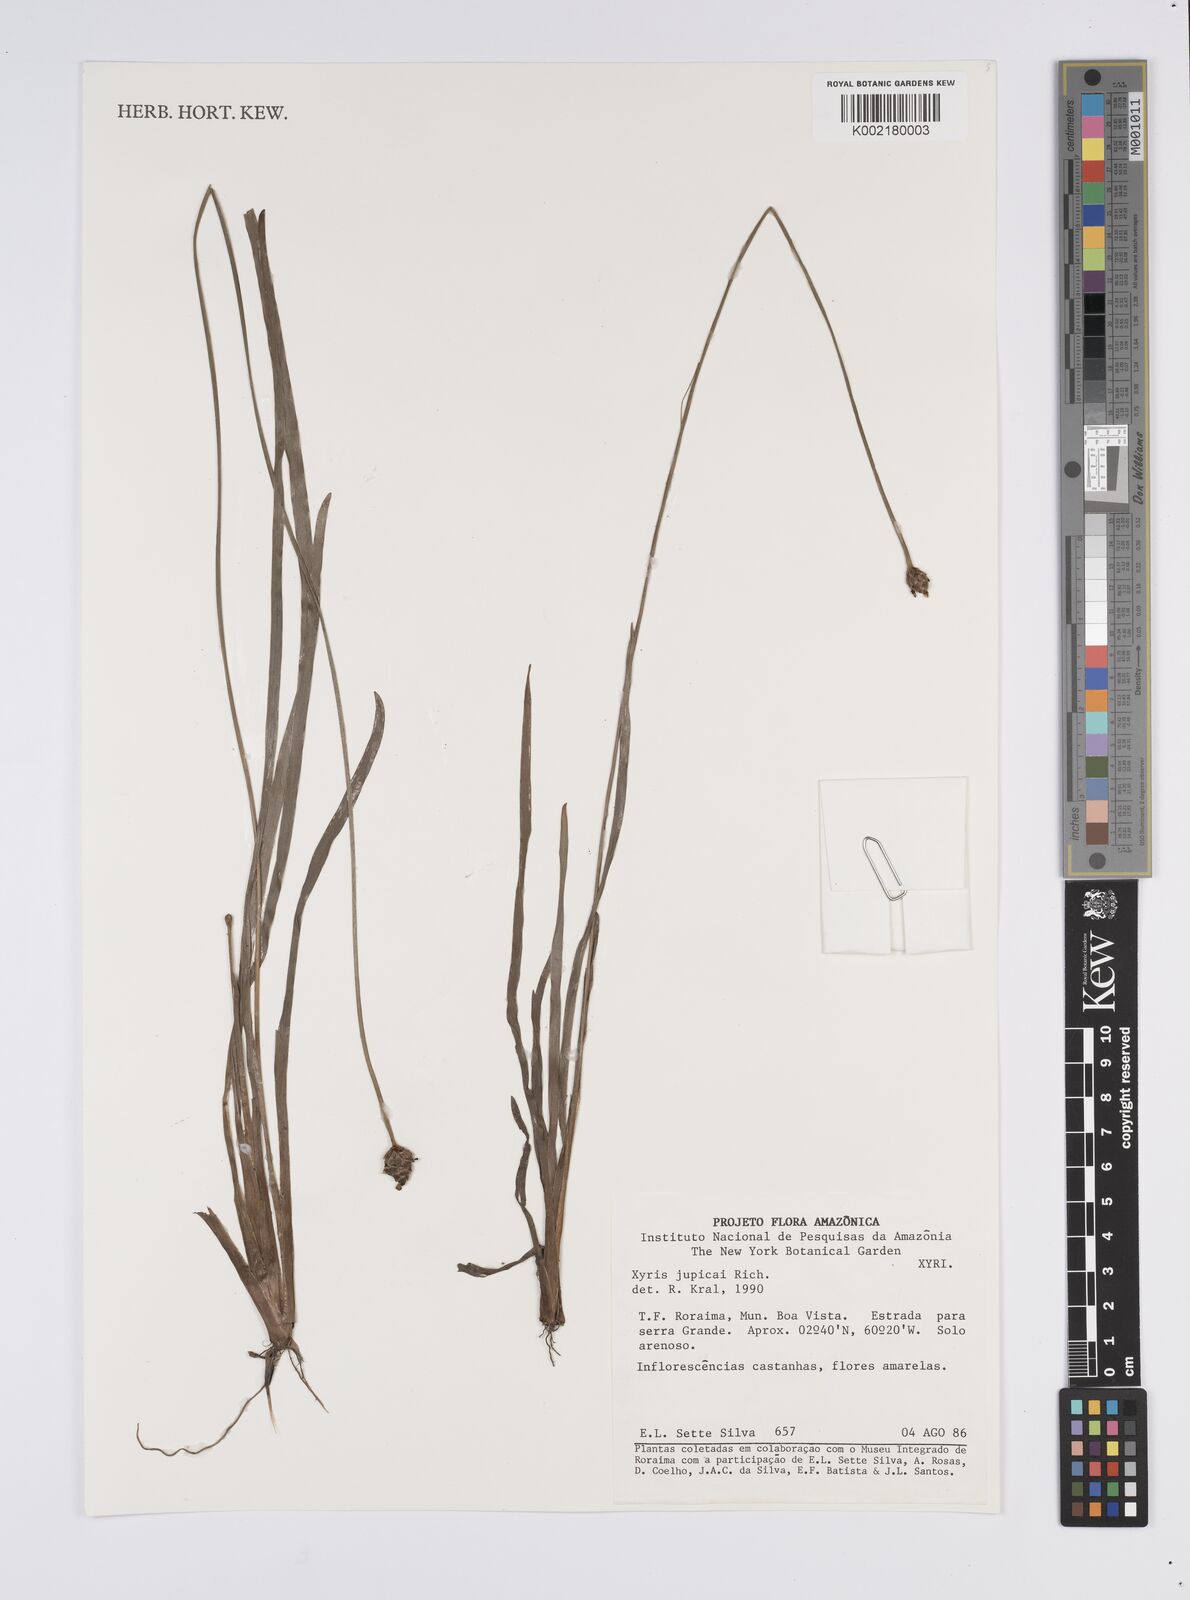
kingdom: Plantae
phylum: Tracheophyta
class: Liliopsida
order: Poales
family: Xyridaceae
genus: Xyris
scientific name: Xyris jupicai
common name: Richard's yelloweyed grass
